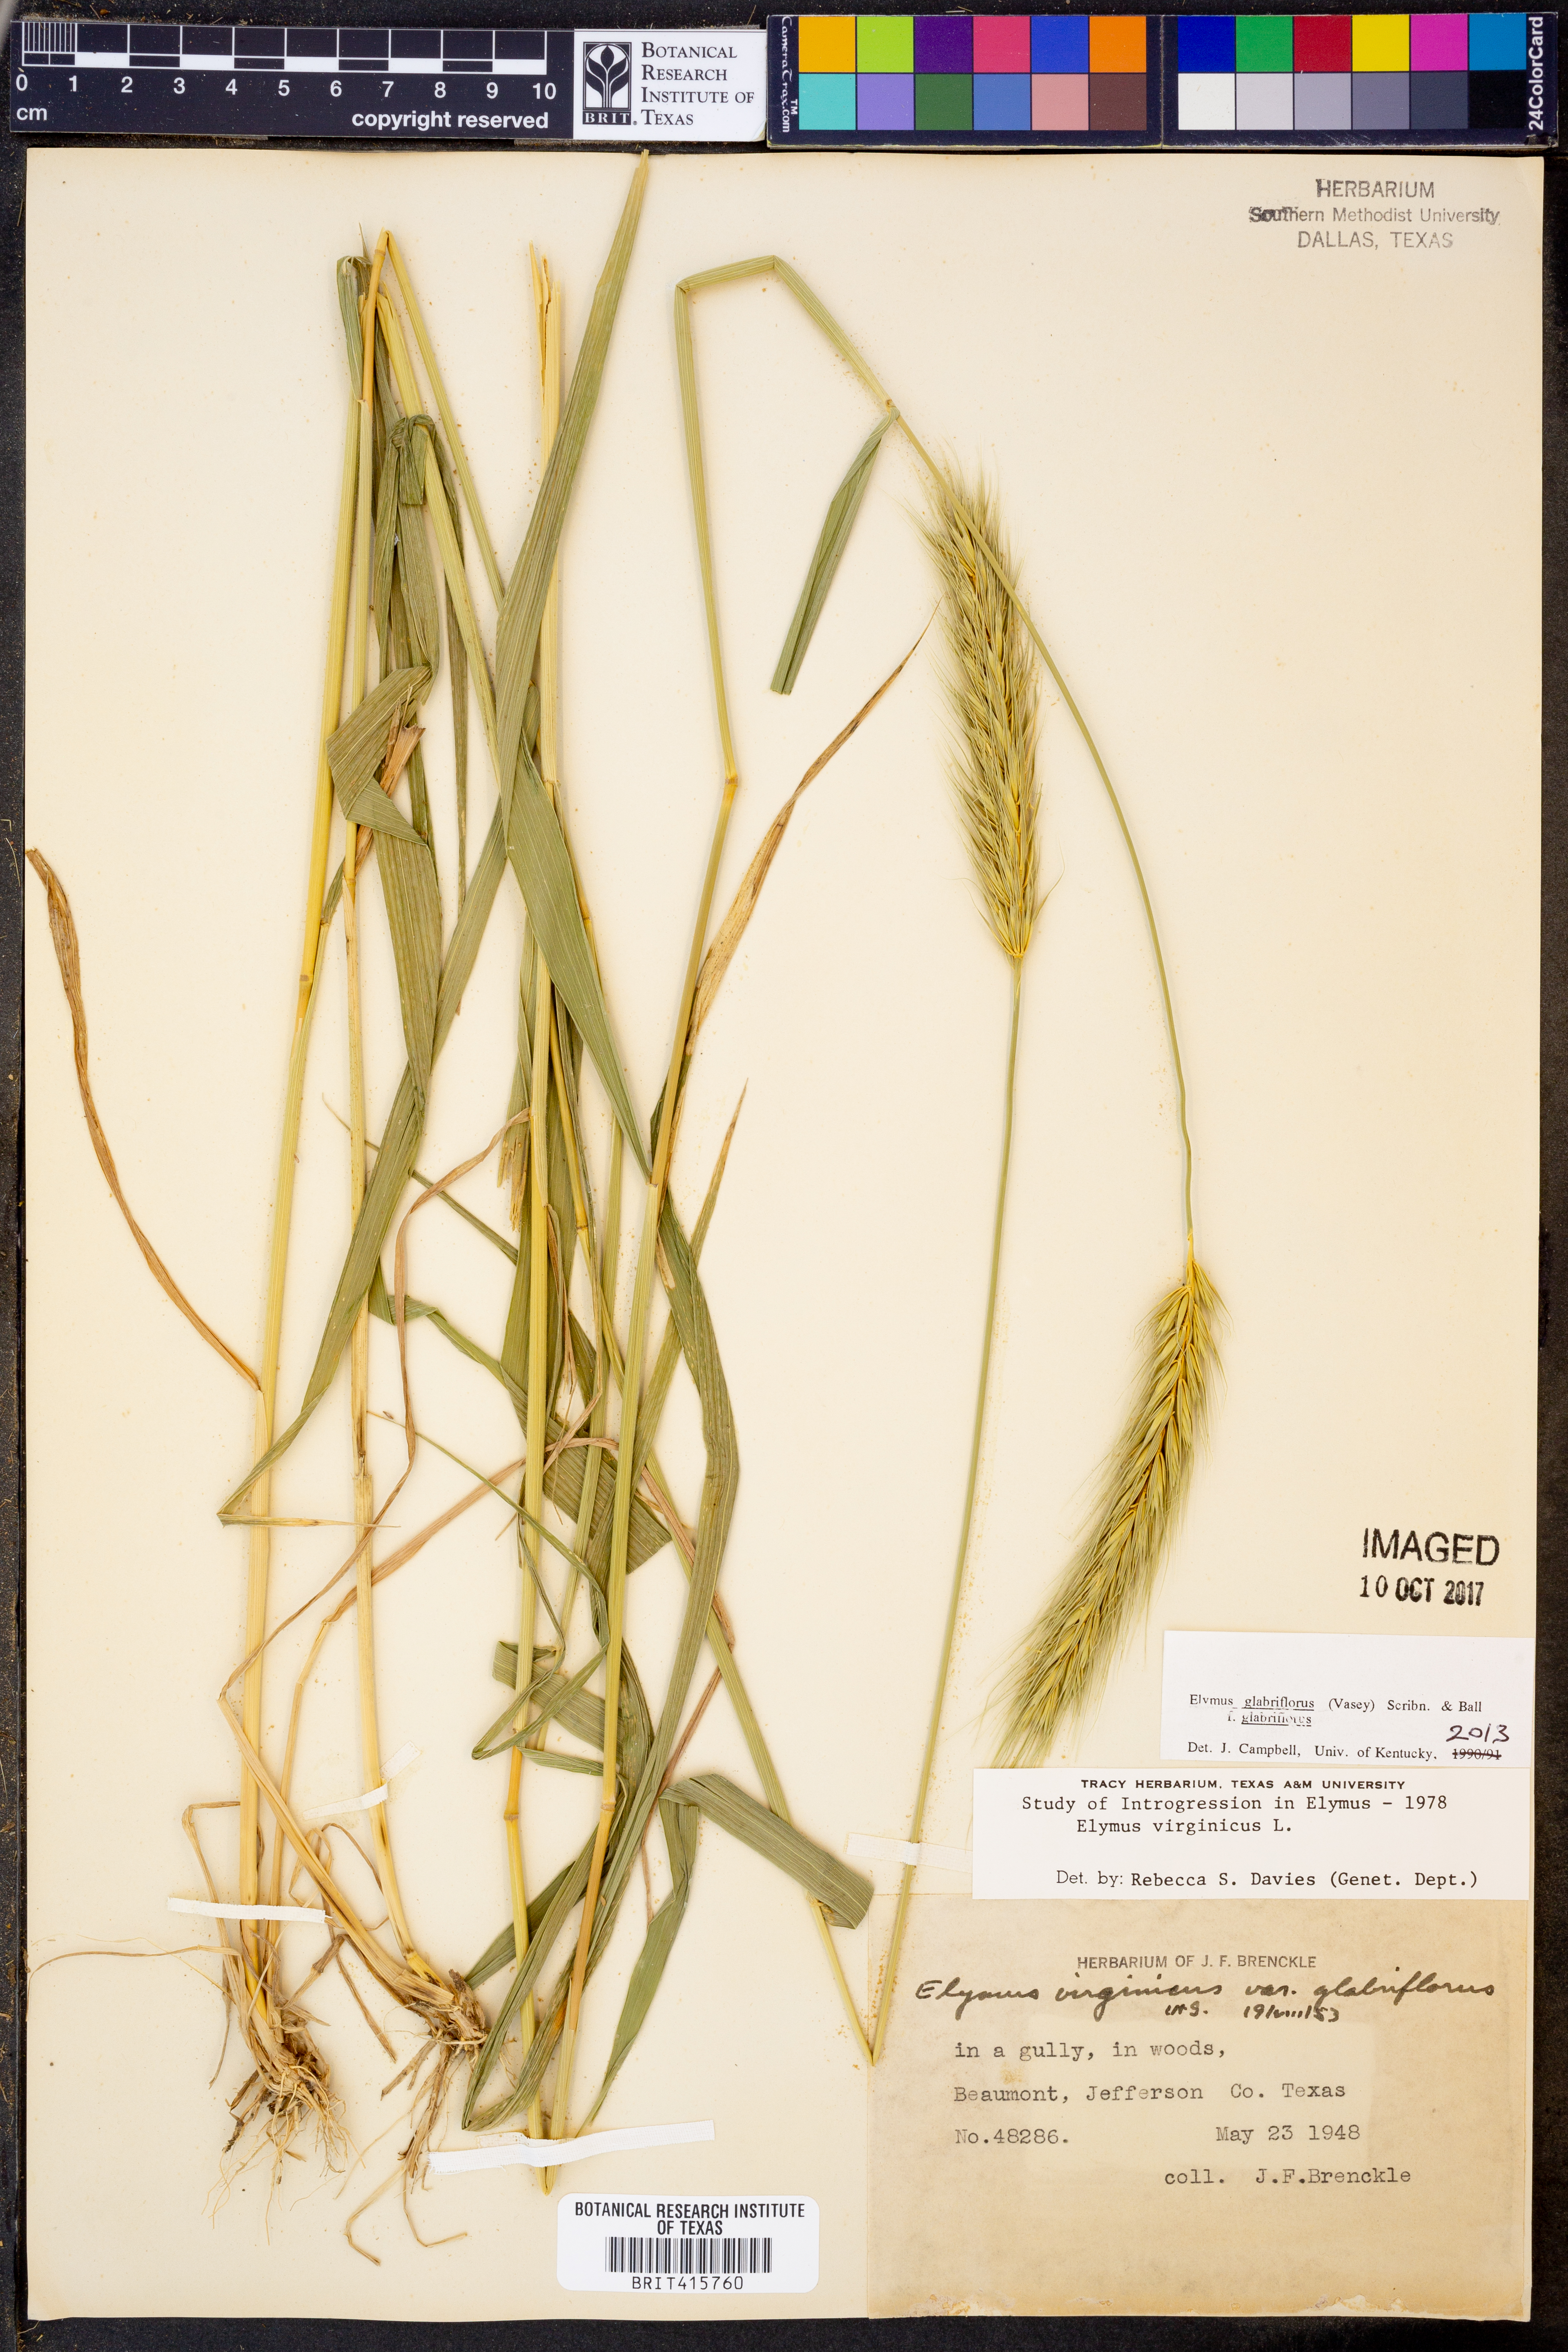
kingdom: Plantae
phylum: Tracheophyta
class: Liliopsida
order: Poales
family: Poaceae
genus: Elymus
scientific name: Elymus virginicus
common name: Common eastern wildrye
